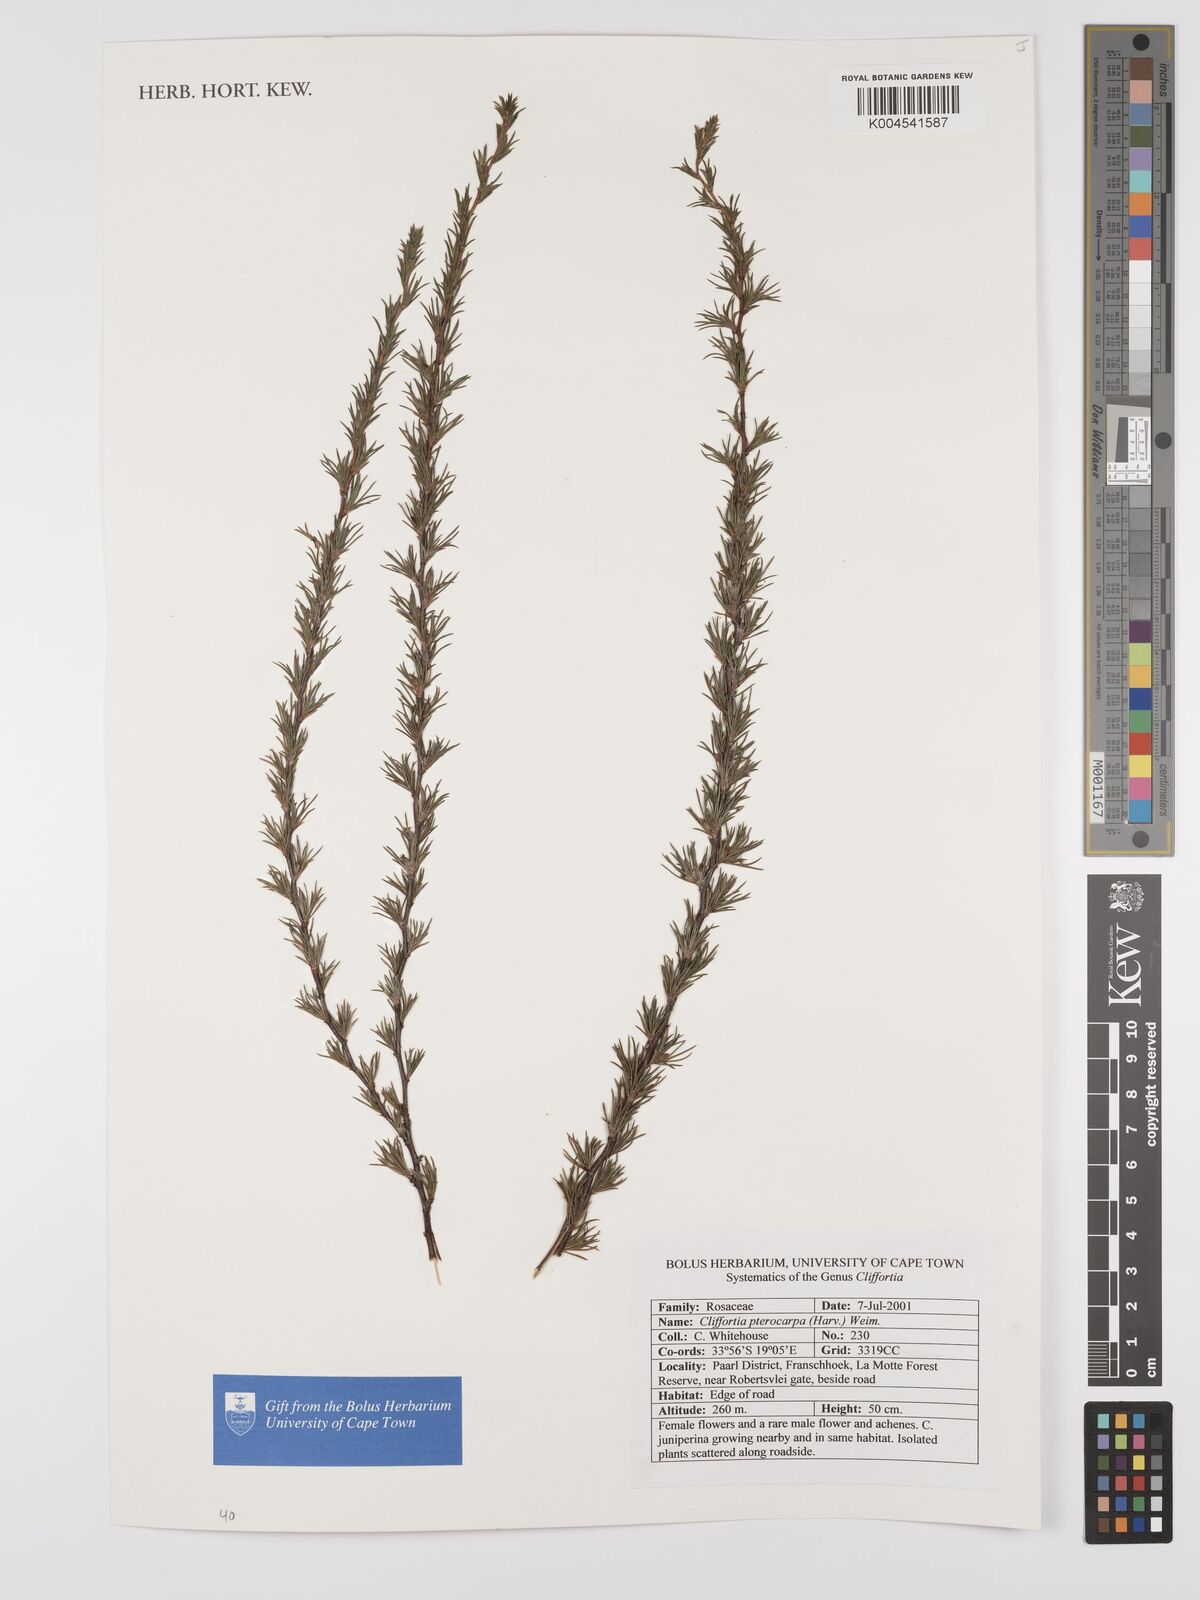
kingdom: Plantae
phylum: Tracheophyta
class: Magnoliopsida
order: Rosales
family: Rosaceae
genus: Cliffortia
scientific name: Cliffortia pterocarpa
